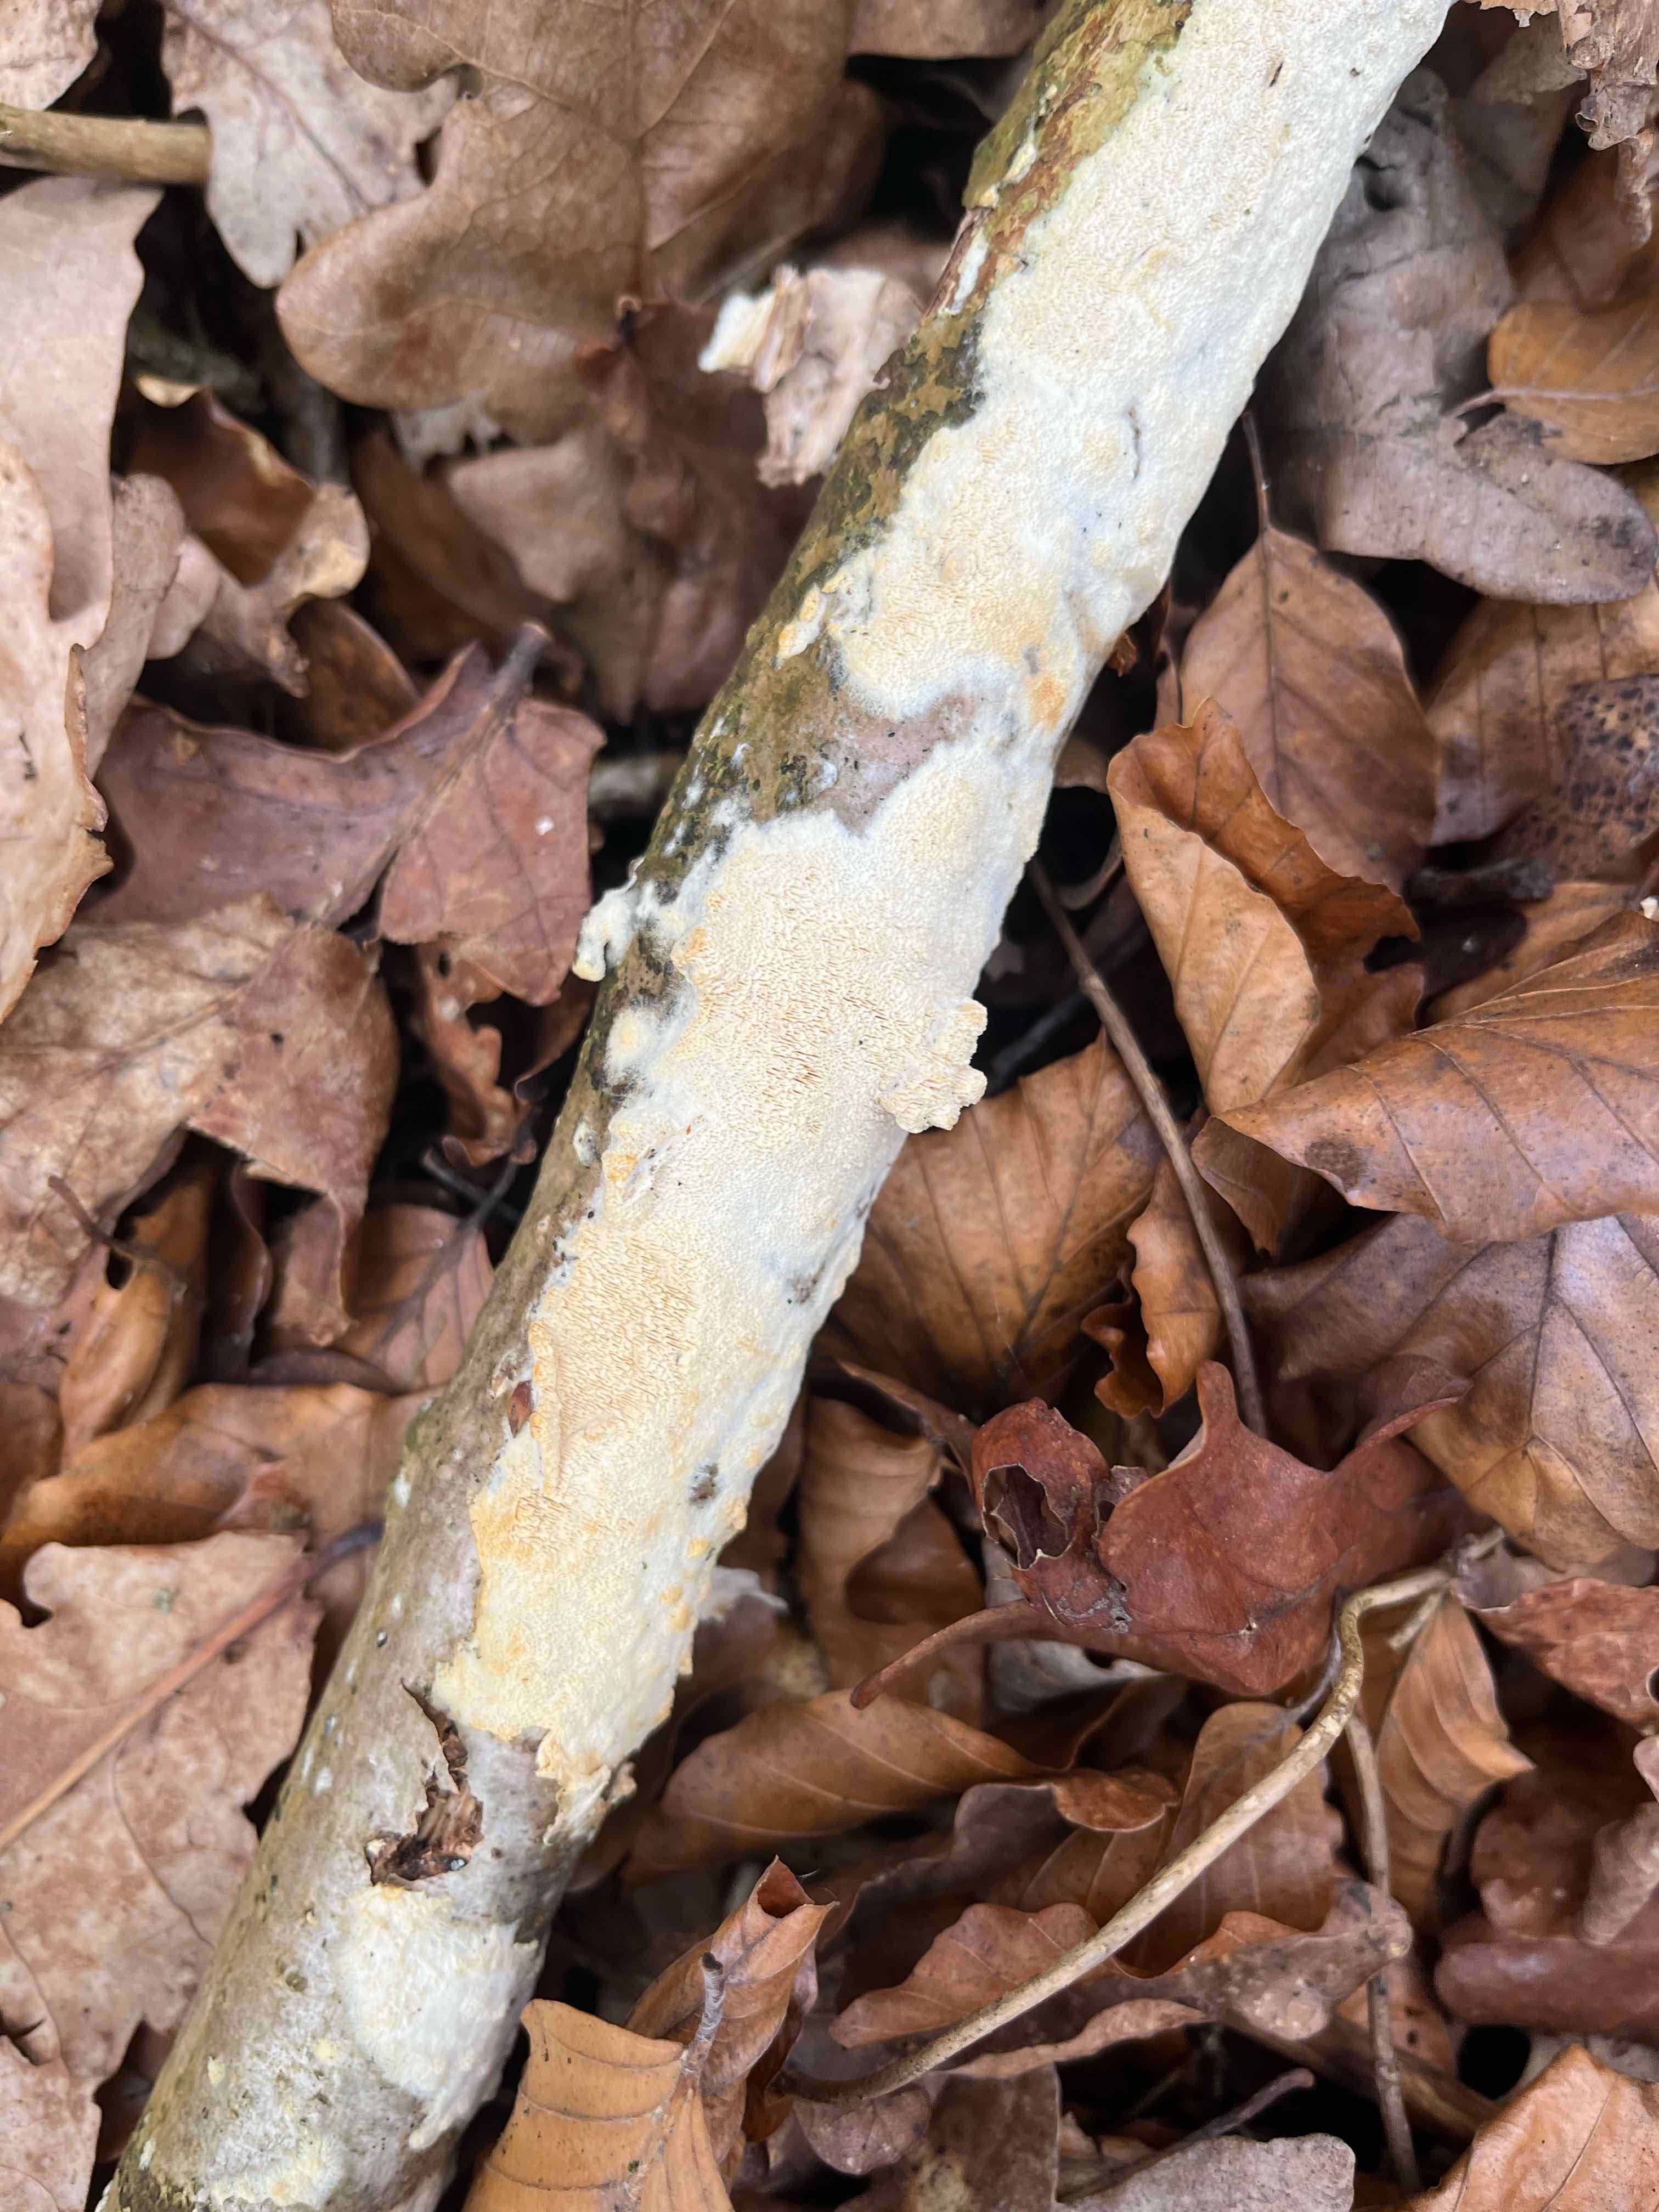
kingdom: Fungi
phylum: Basidiomycota
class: Agaricomycetes
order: Hymenochaetales
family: Schizoporaceae
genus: Xylodon
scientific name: Xylodon
